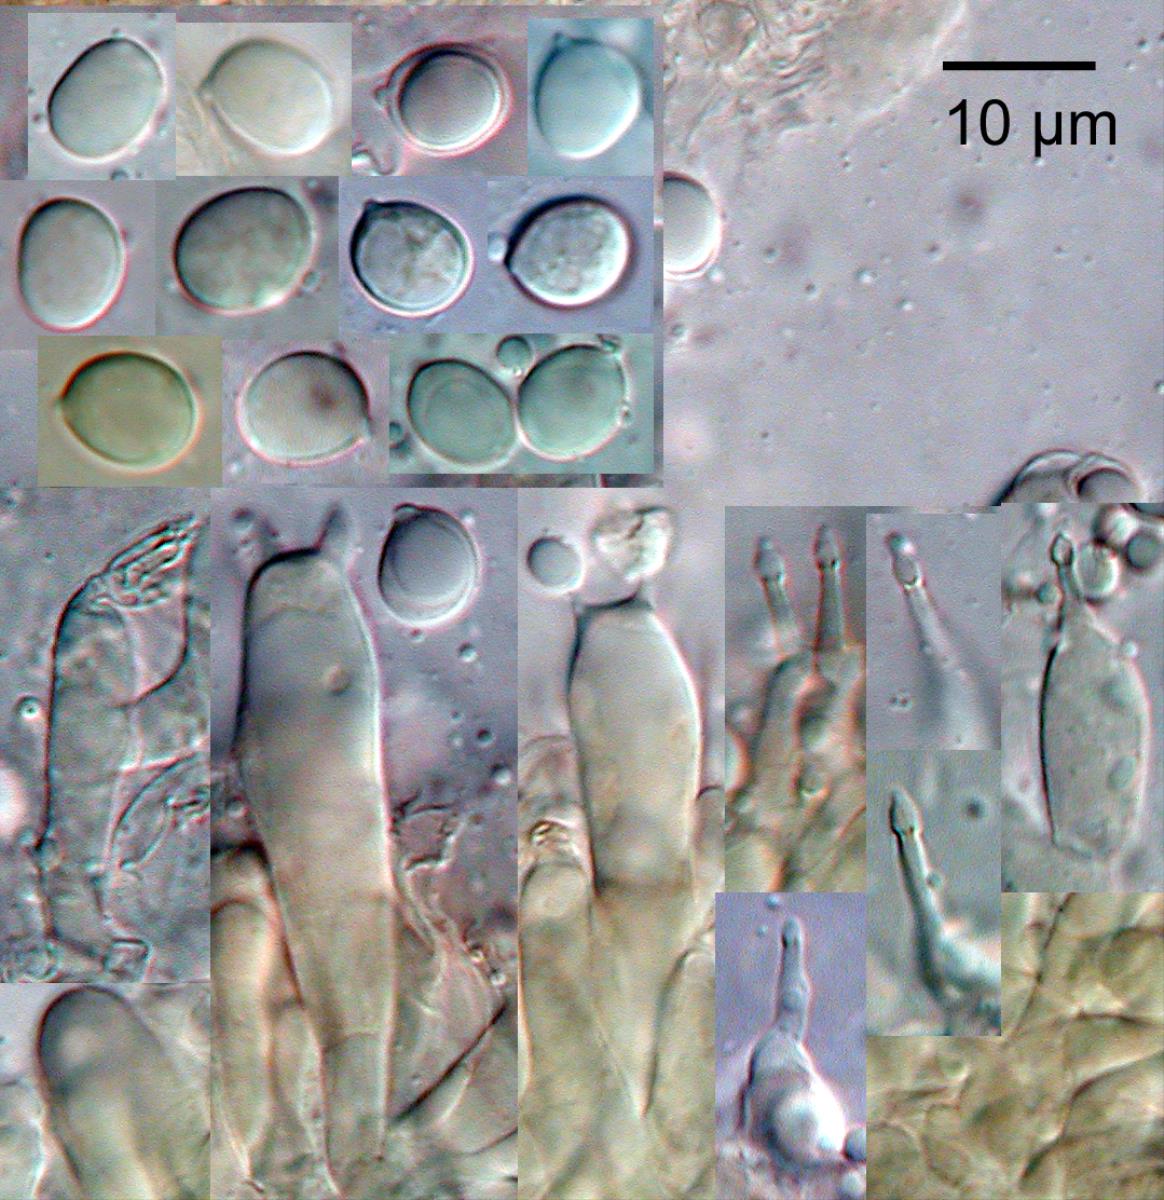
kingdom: Fungi
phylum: Basidiomycota
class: Agaricomycetes
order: Agaricales
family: Pleurotaceae
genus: Hohenbuehelia
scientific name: Hohenbuehelia
